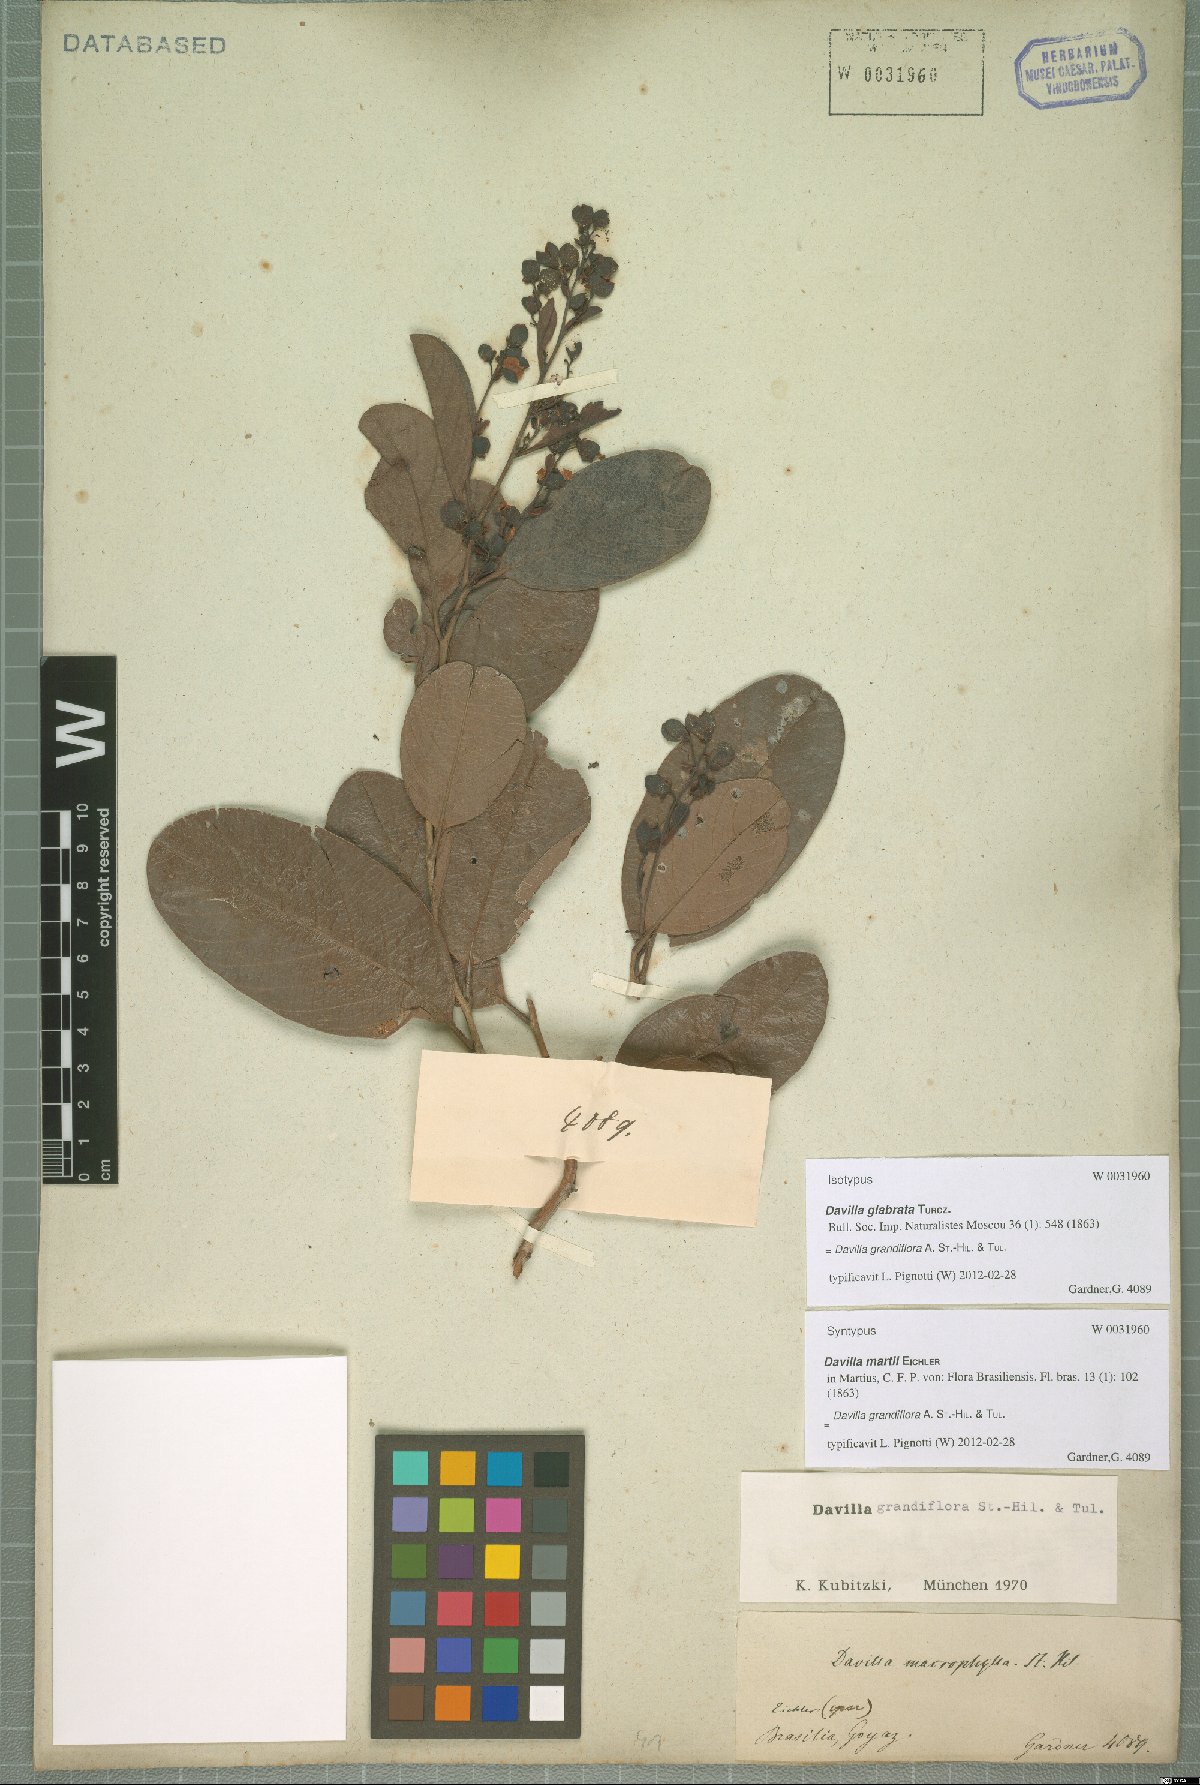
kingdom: Plantae
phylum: Tracheophyta
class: Magnoliopsida
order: Dilleniales
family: Dilleniaceae
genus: Davilla
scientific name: Davilla grandiflora
